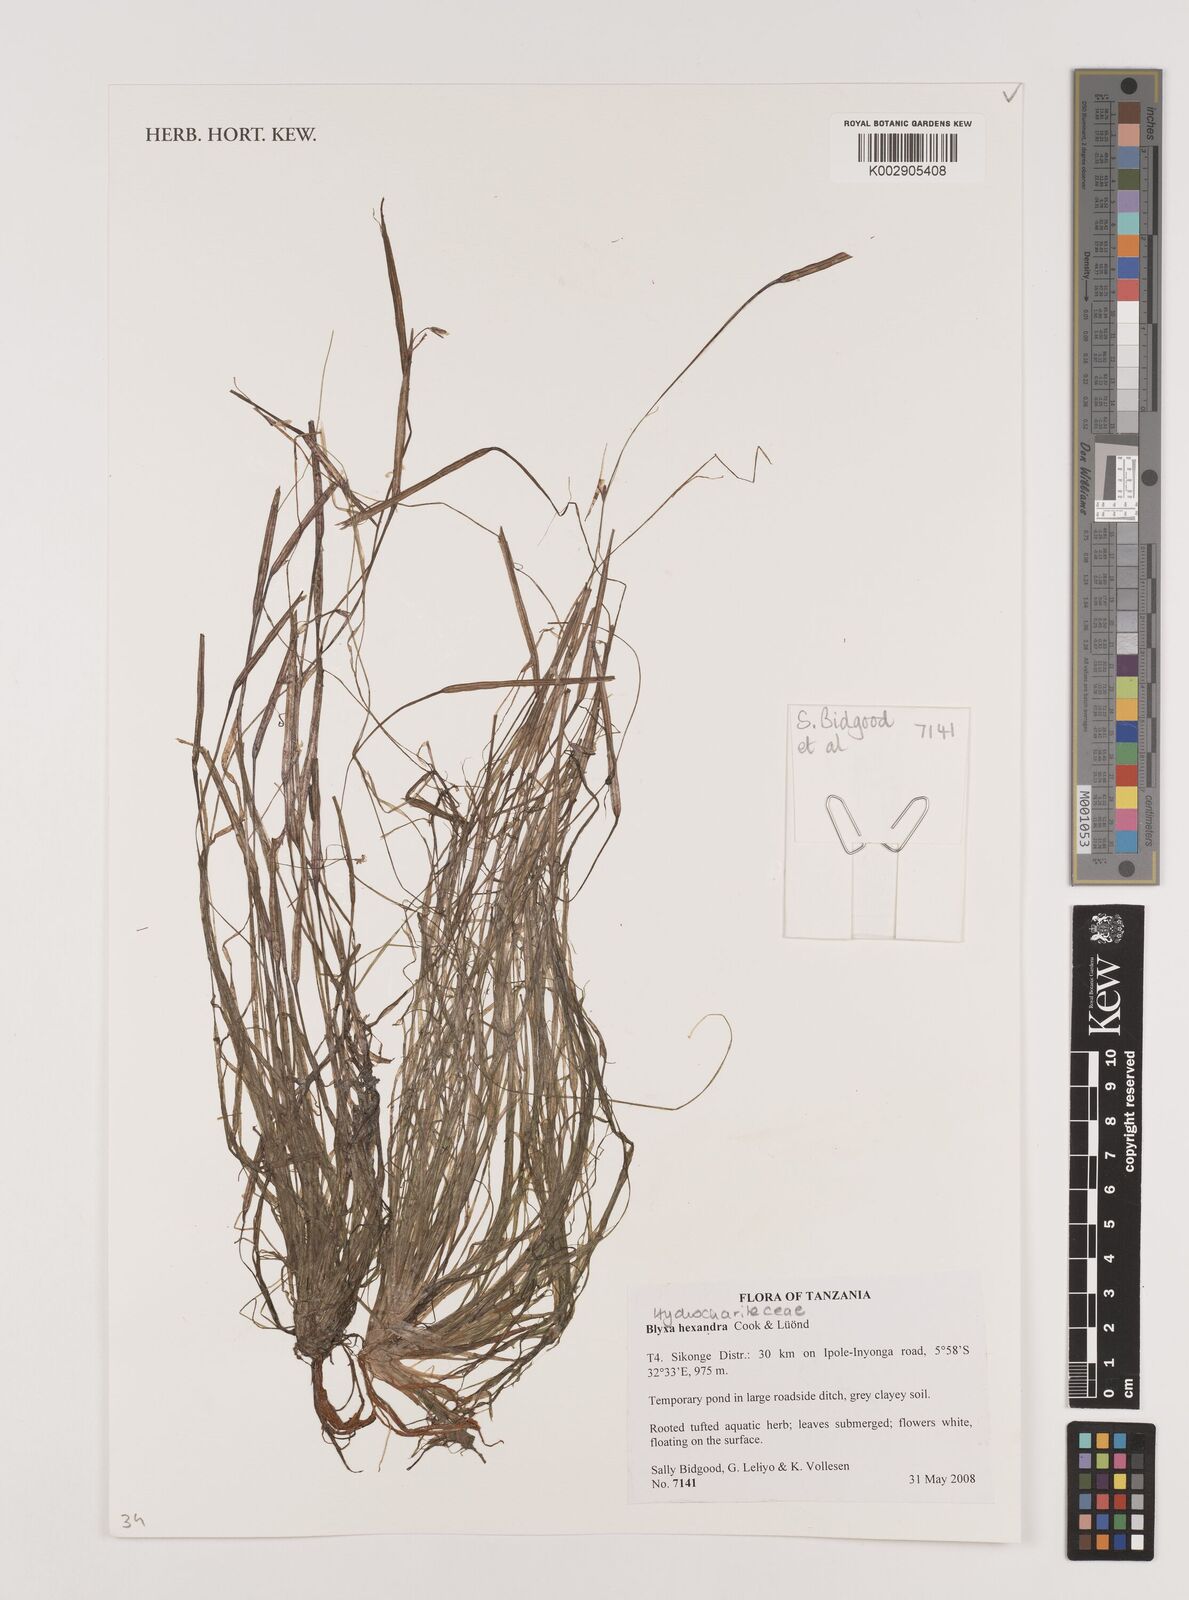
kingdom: Plantae
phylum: Tracheophyta
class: Liliopsida
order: Alismatales
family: Hydrocharitaceae
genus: Blyxa
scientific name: Blyxa hexandra
